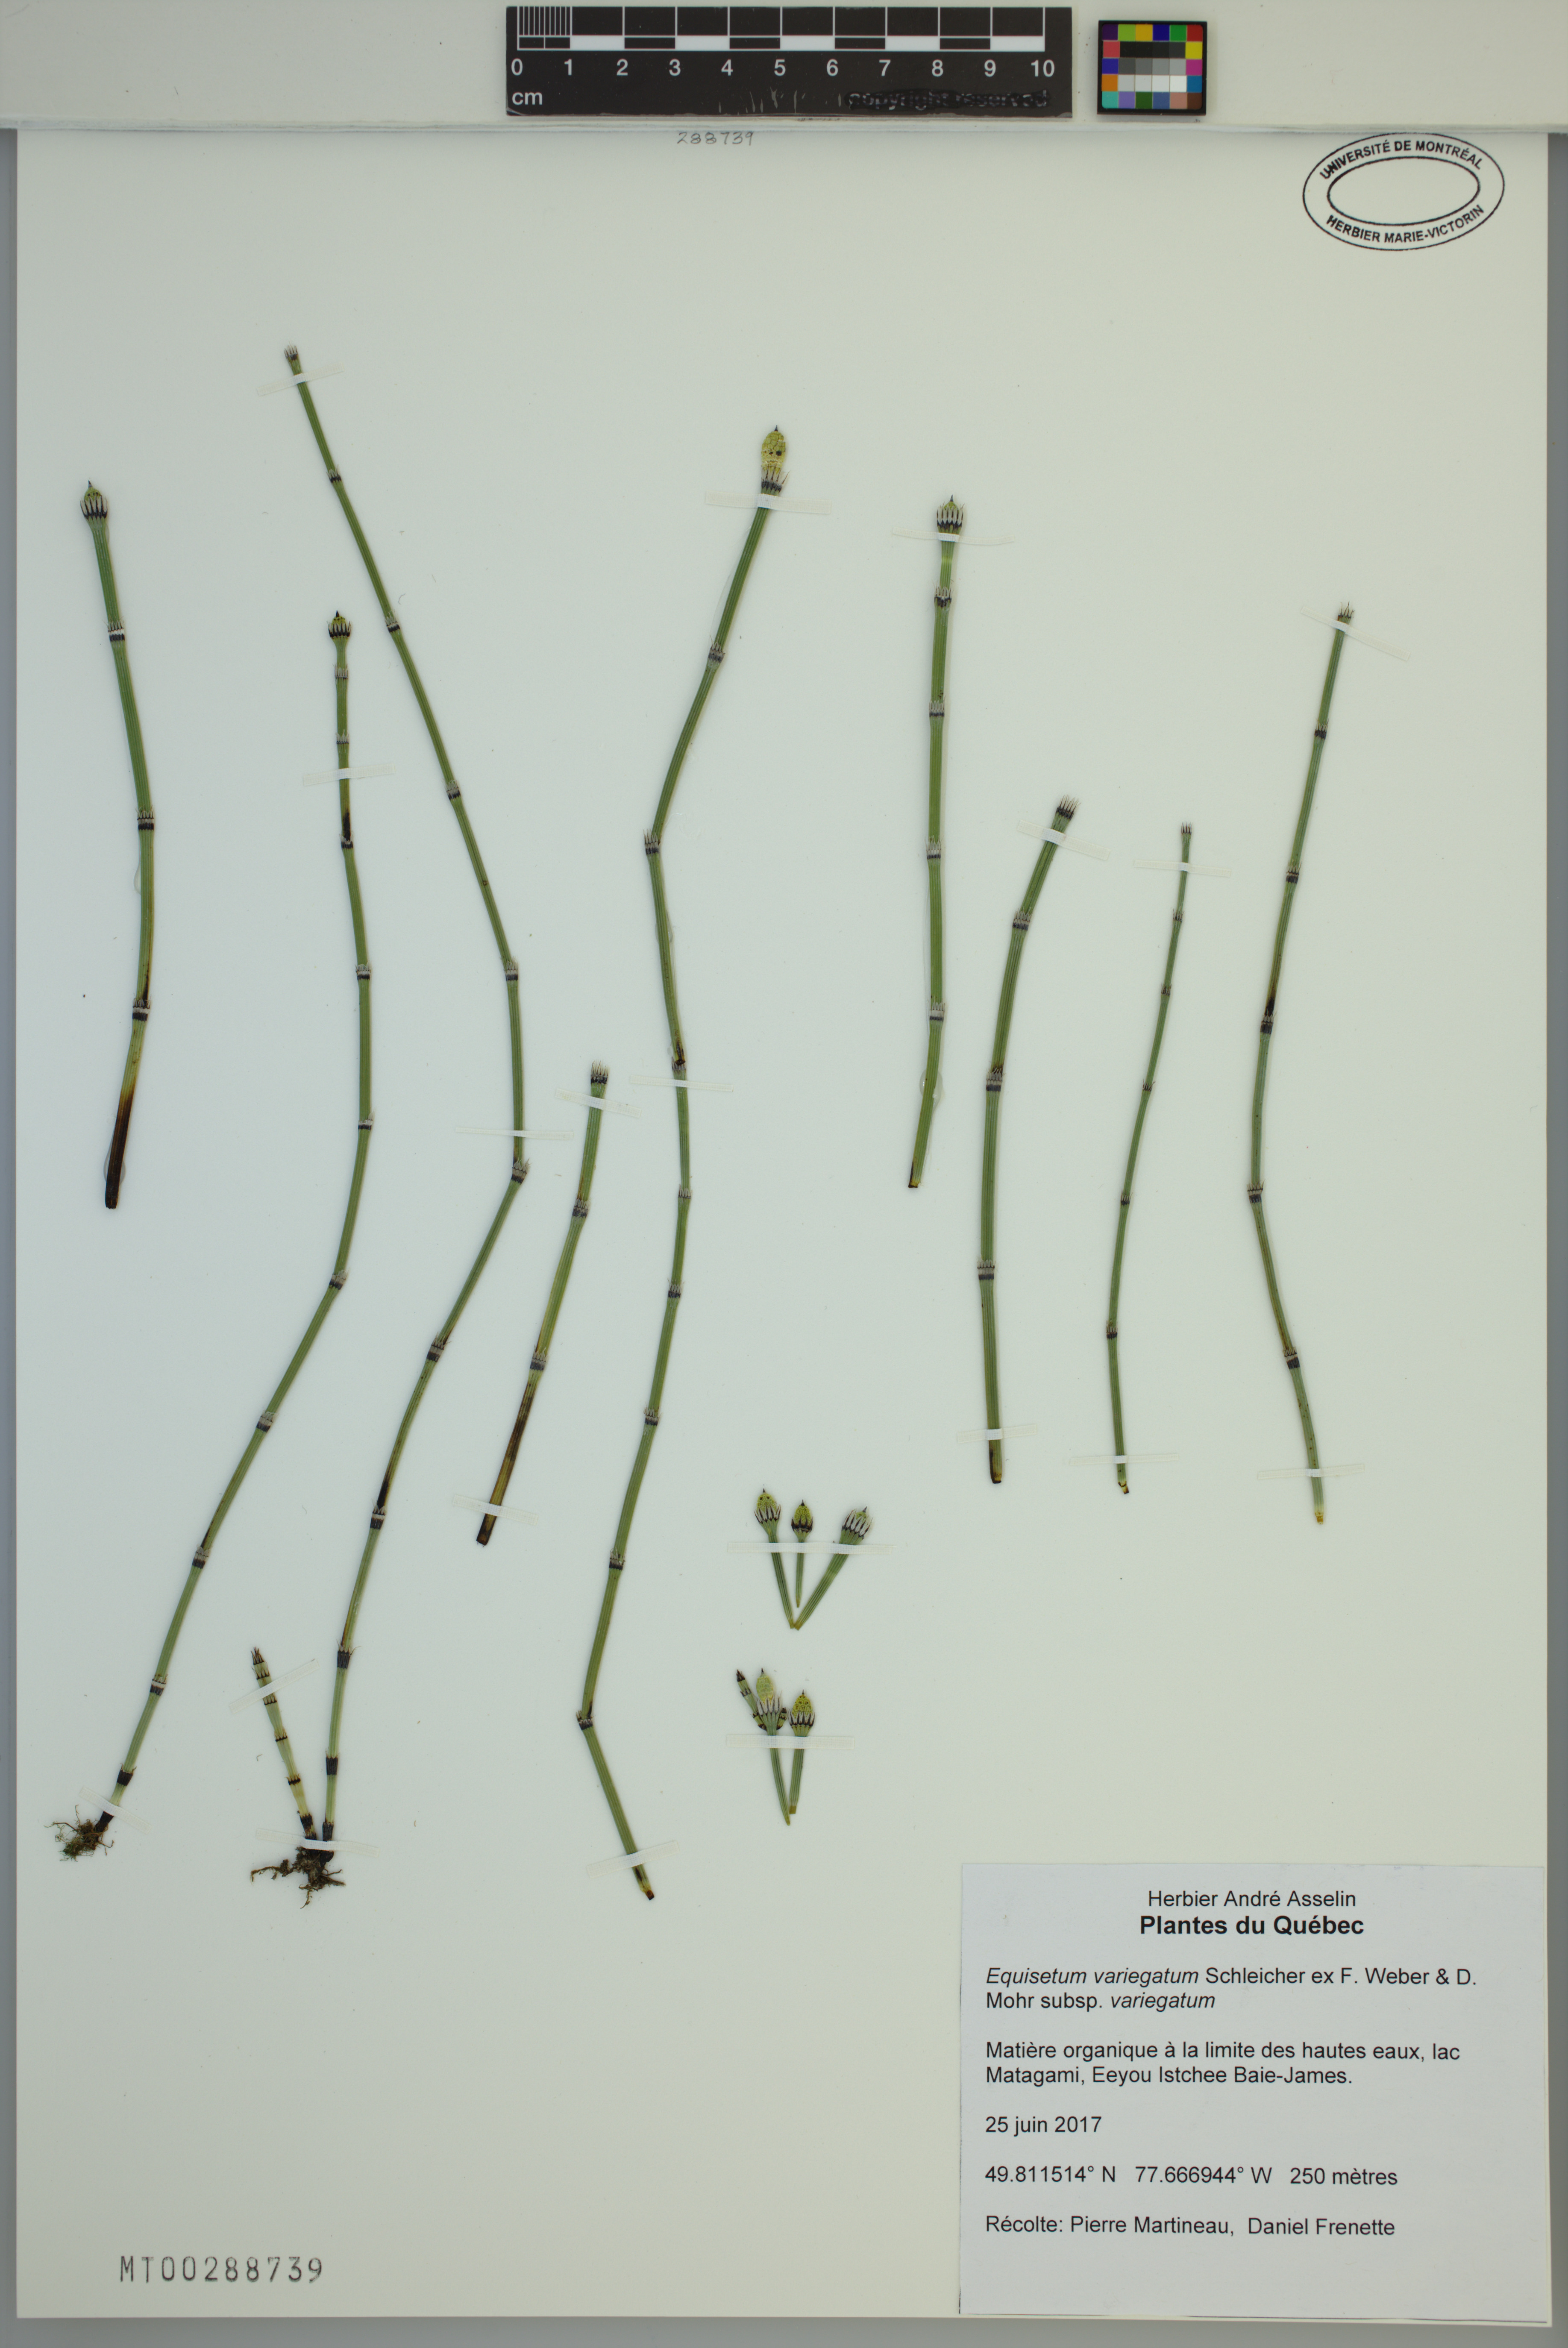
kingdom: Plantae
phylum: Tracheophyta
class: Polypodiopsida
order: Equisetales
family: Equisetaceae
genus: Equisetum
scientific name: Equisetum variegatum
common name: Variegated horsetail
